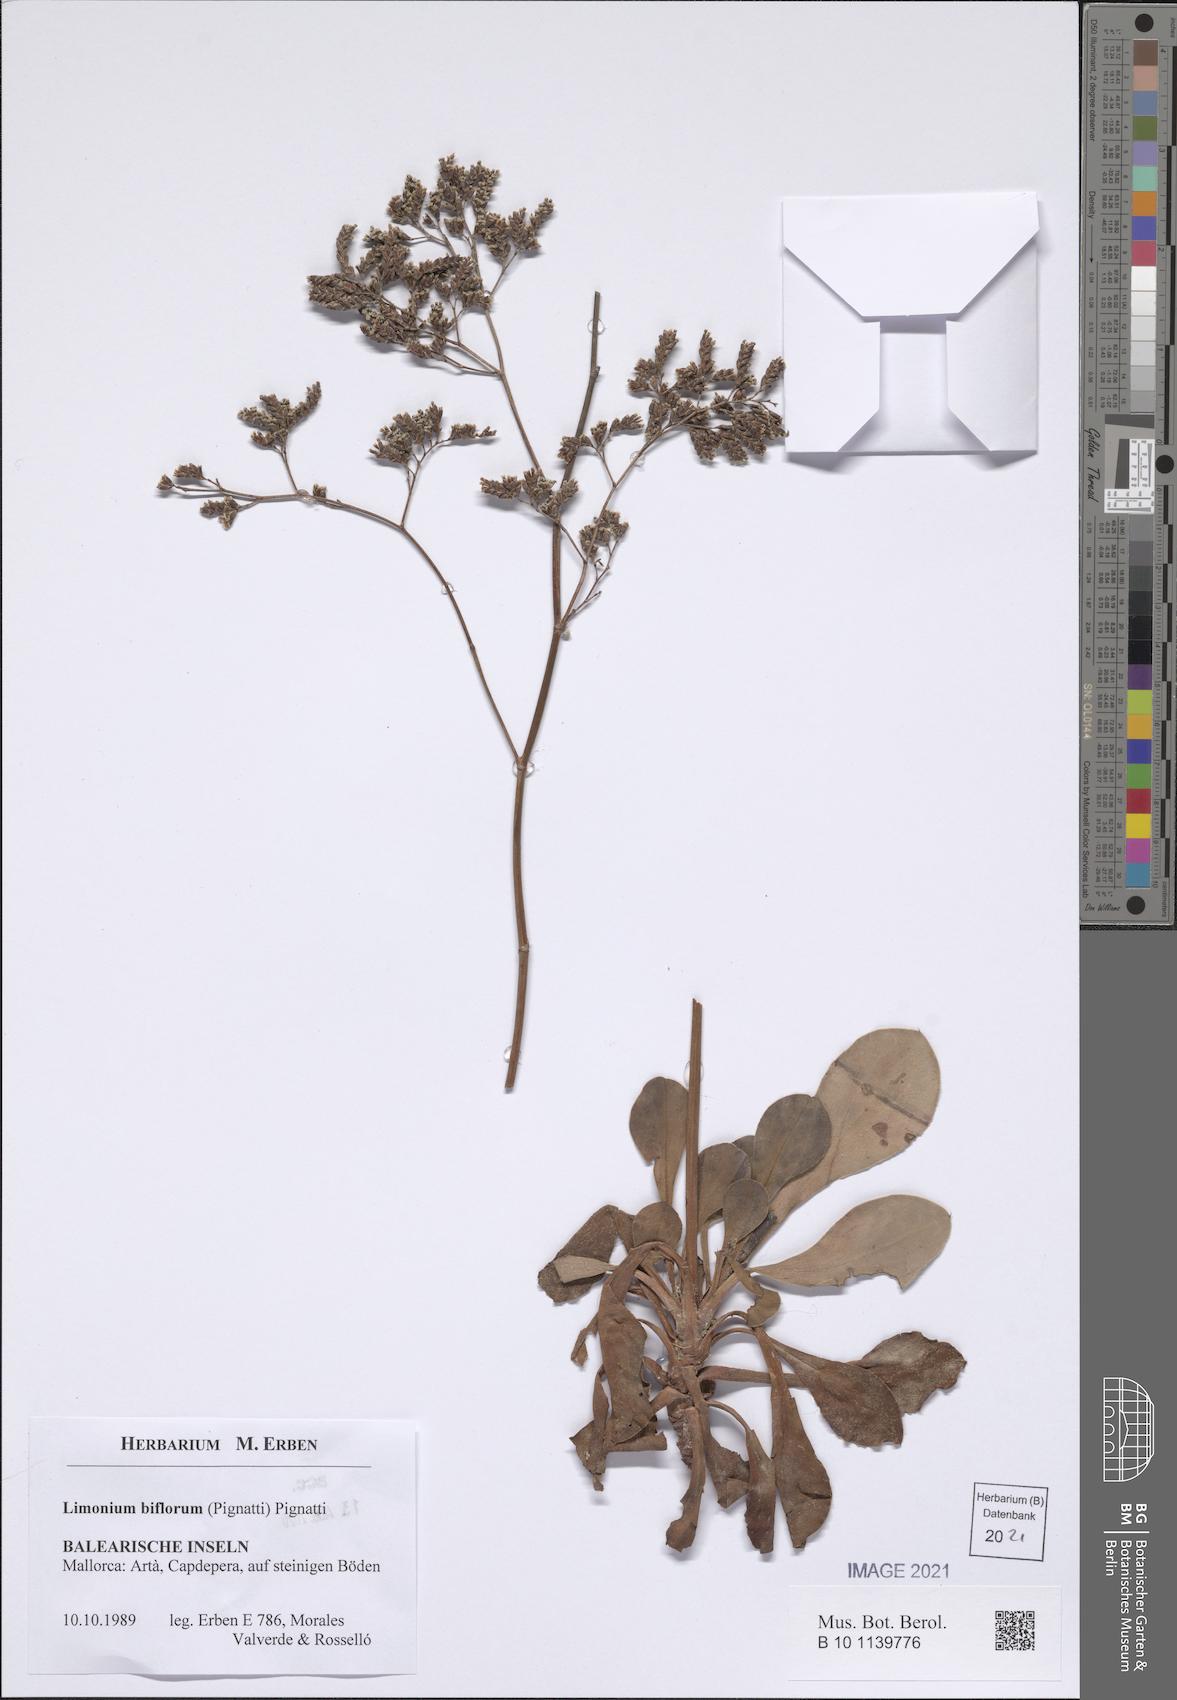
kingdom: Plantae
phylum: Tracheophyta
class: Magnoliopsida
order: Caryophyllales
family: Plumbaginaceae
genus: Limonium
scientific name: Limonium biflorum
